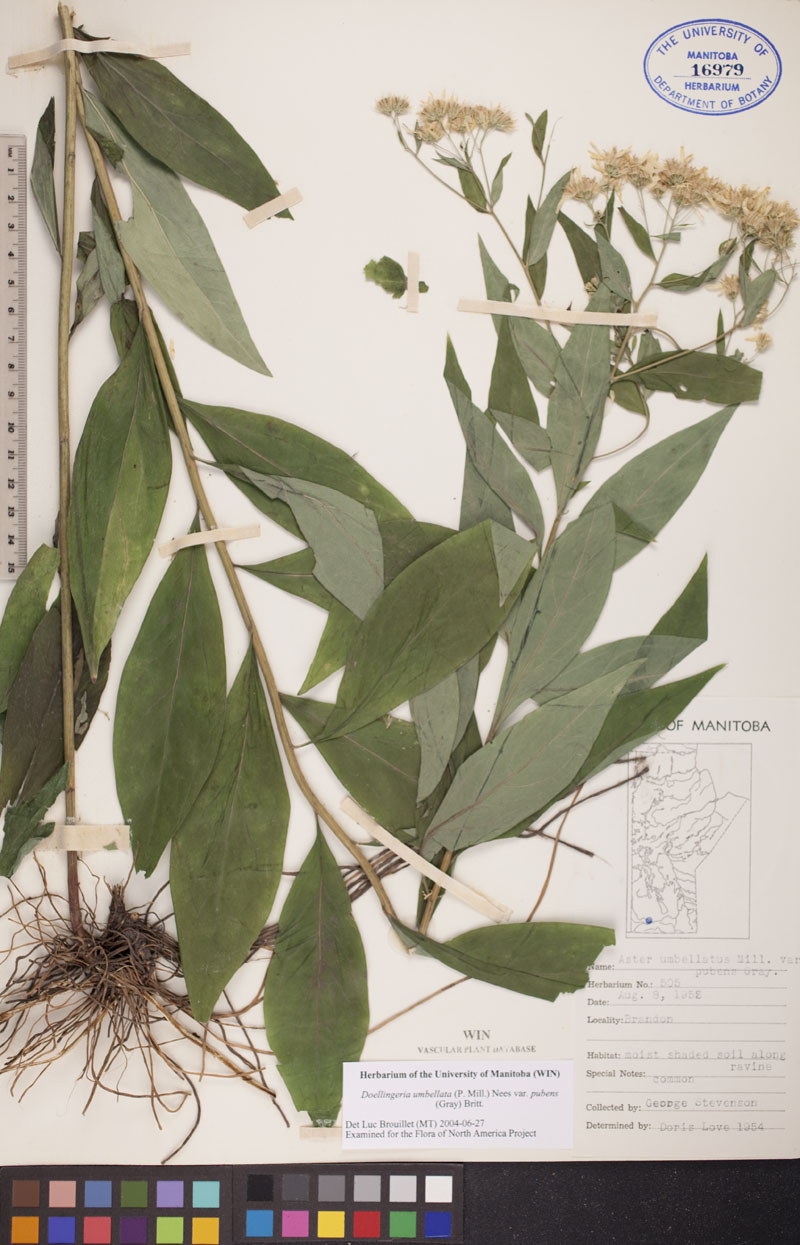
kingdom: Plantae
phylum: Tracheophyta
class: Magnoliopsida
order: Asterales
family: Asteraceae
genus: Doellingeria
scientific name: Doellingeria umbellata
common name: Flat-top white aster
